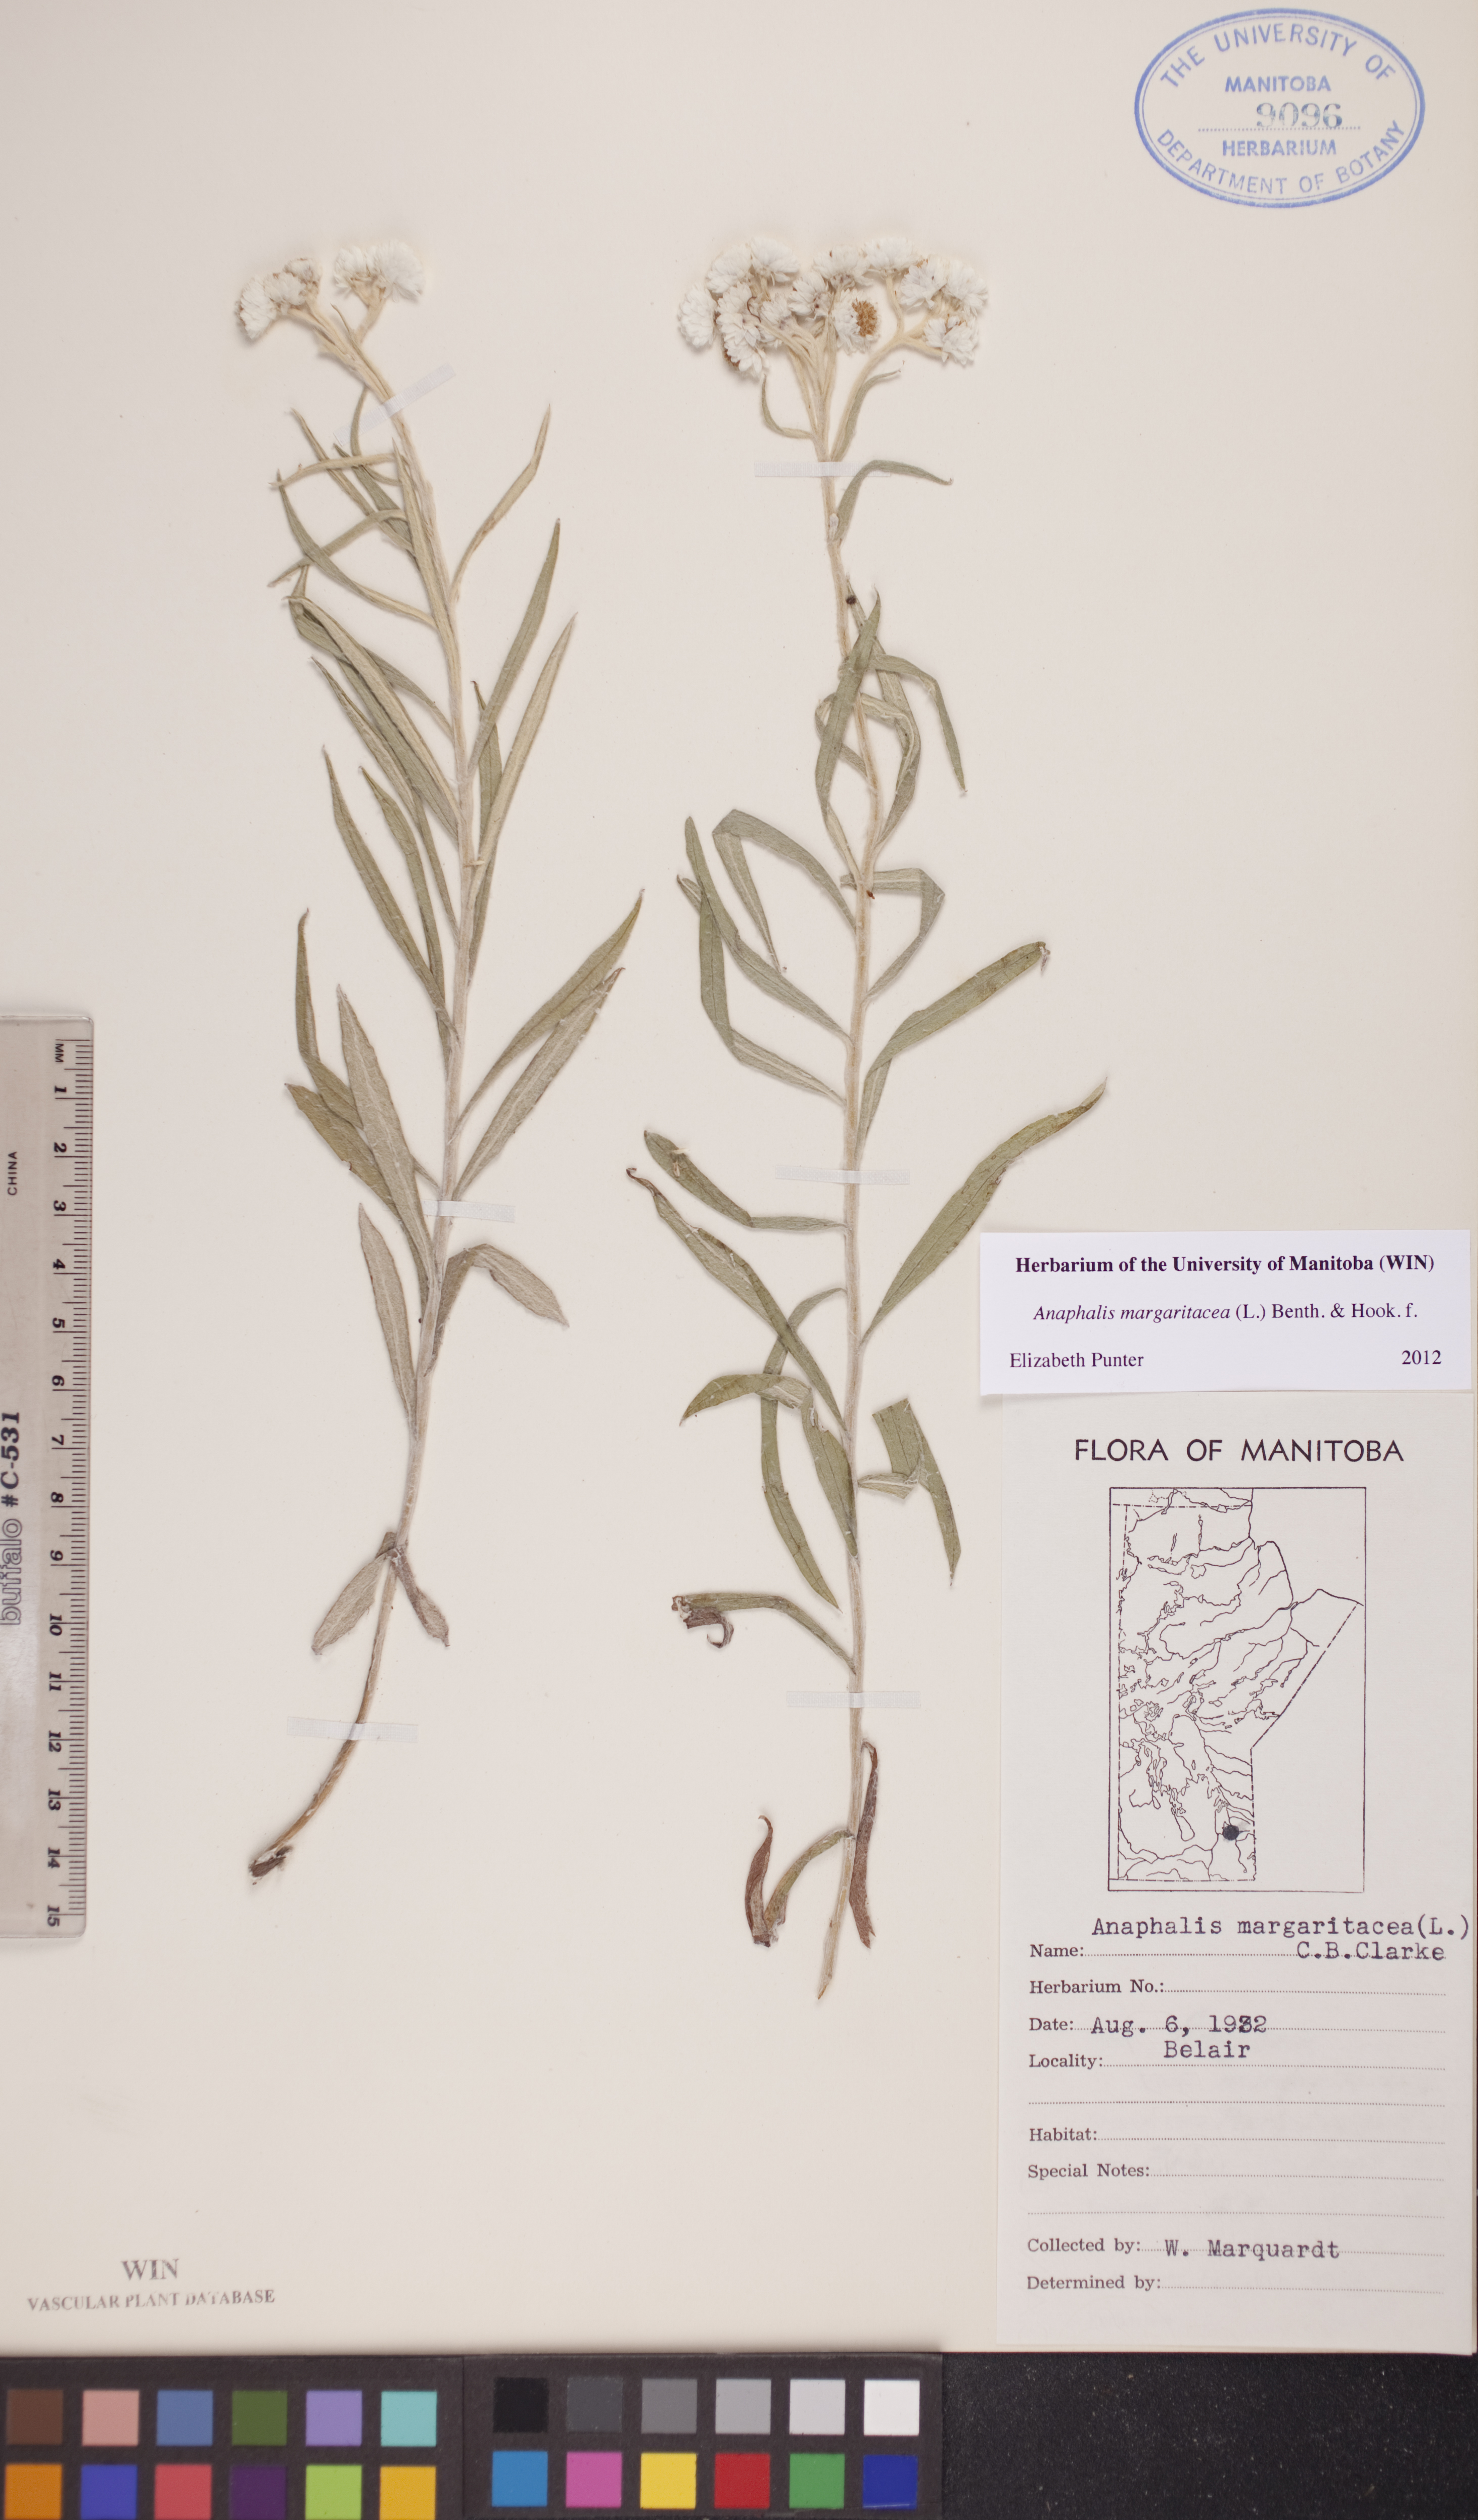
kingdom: Plantae
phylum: Tracheophyta
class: Magnoliopsida
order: Asterales
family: Asteraceae
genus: Anaphalis
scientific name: Anaphalis margaritacea
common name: Pearly everlasting
